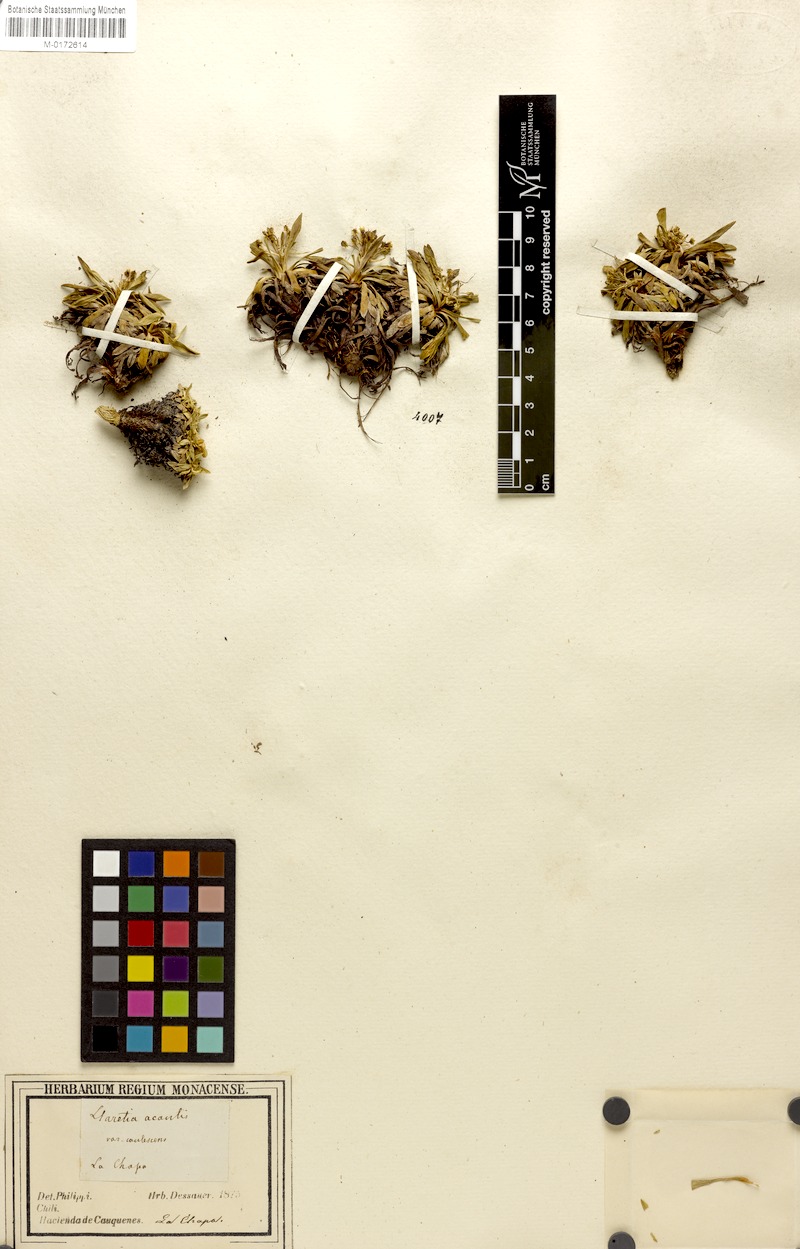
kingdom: Plantae
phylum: Tracheophyta
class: Magnoliopsida
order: Apiales
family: Apiaceae
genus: Azorella
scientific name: Azorella ruizii
